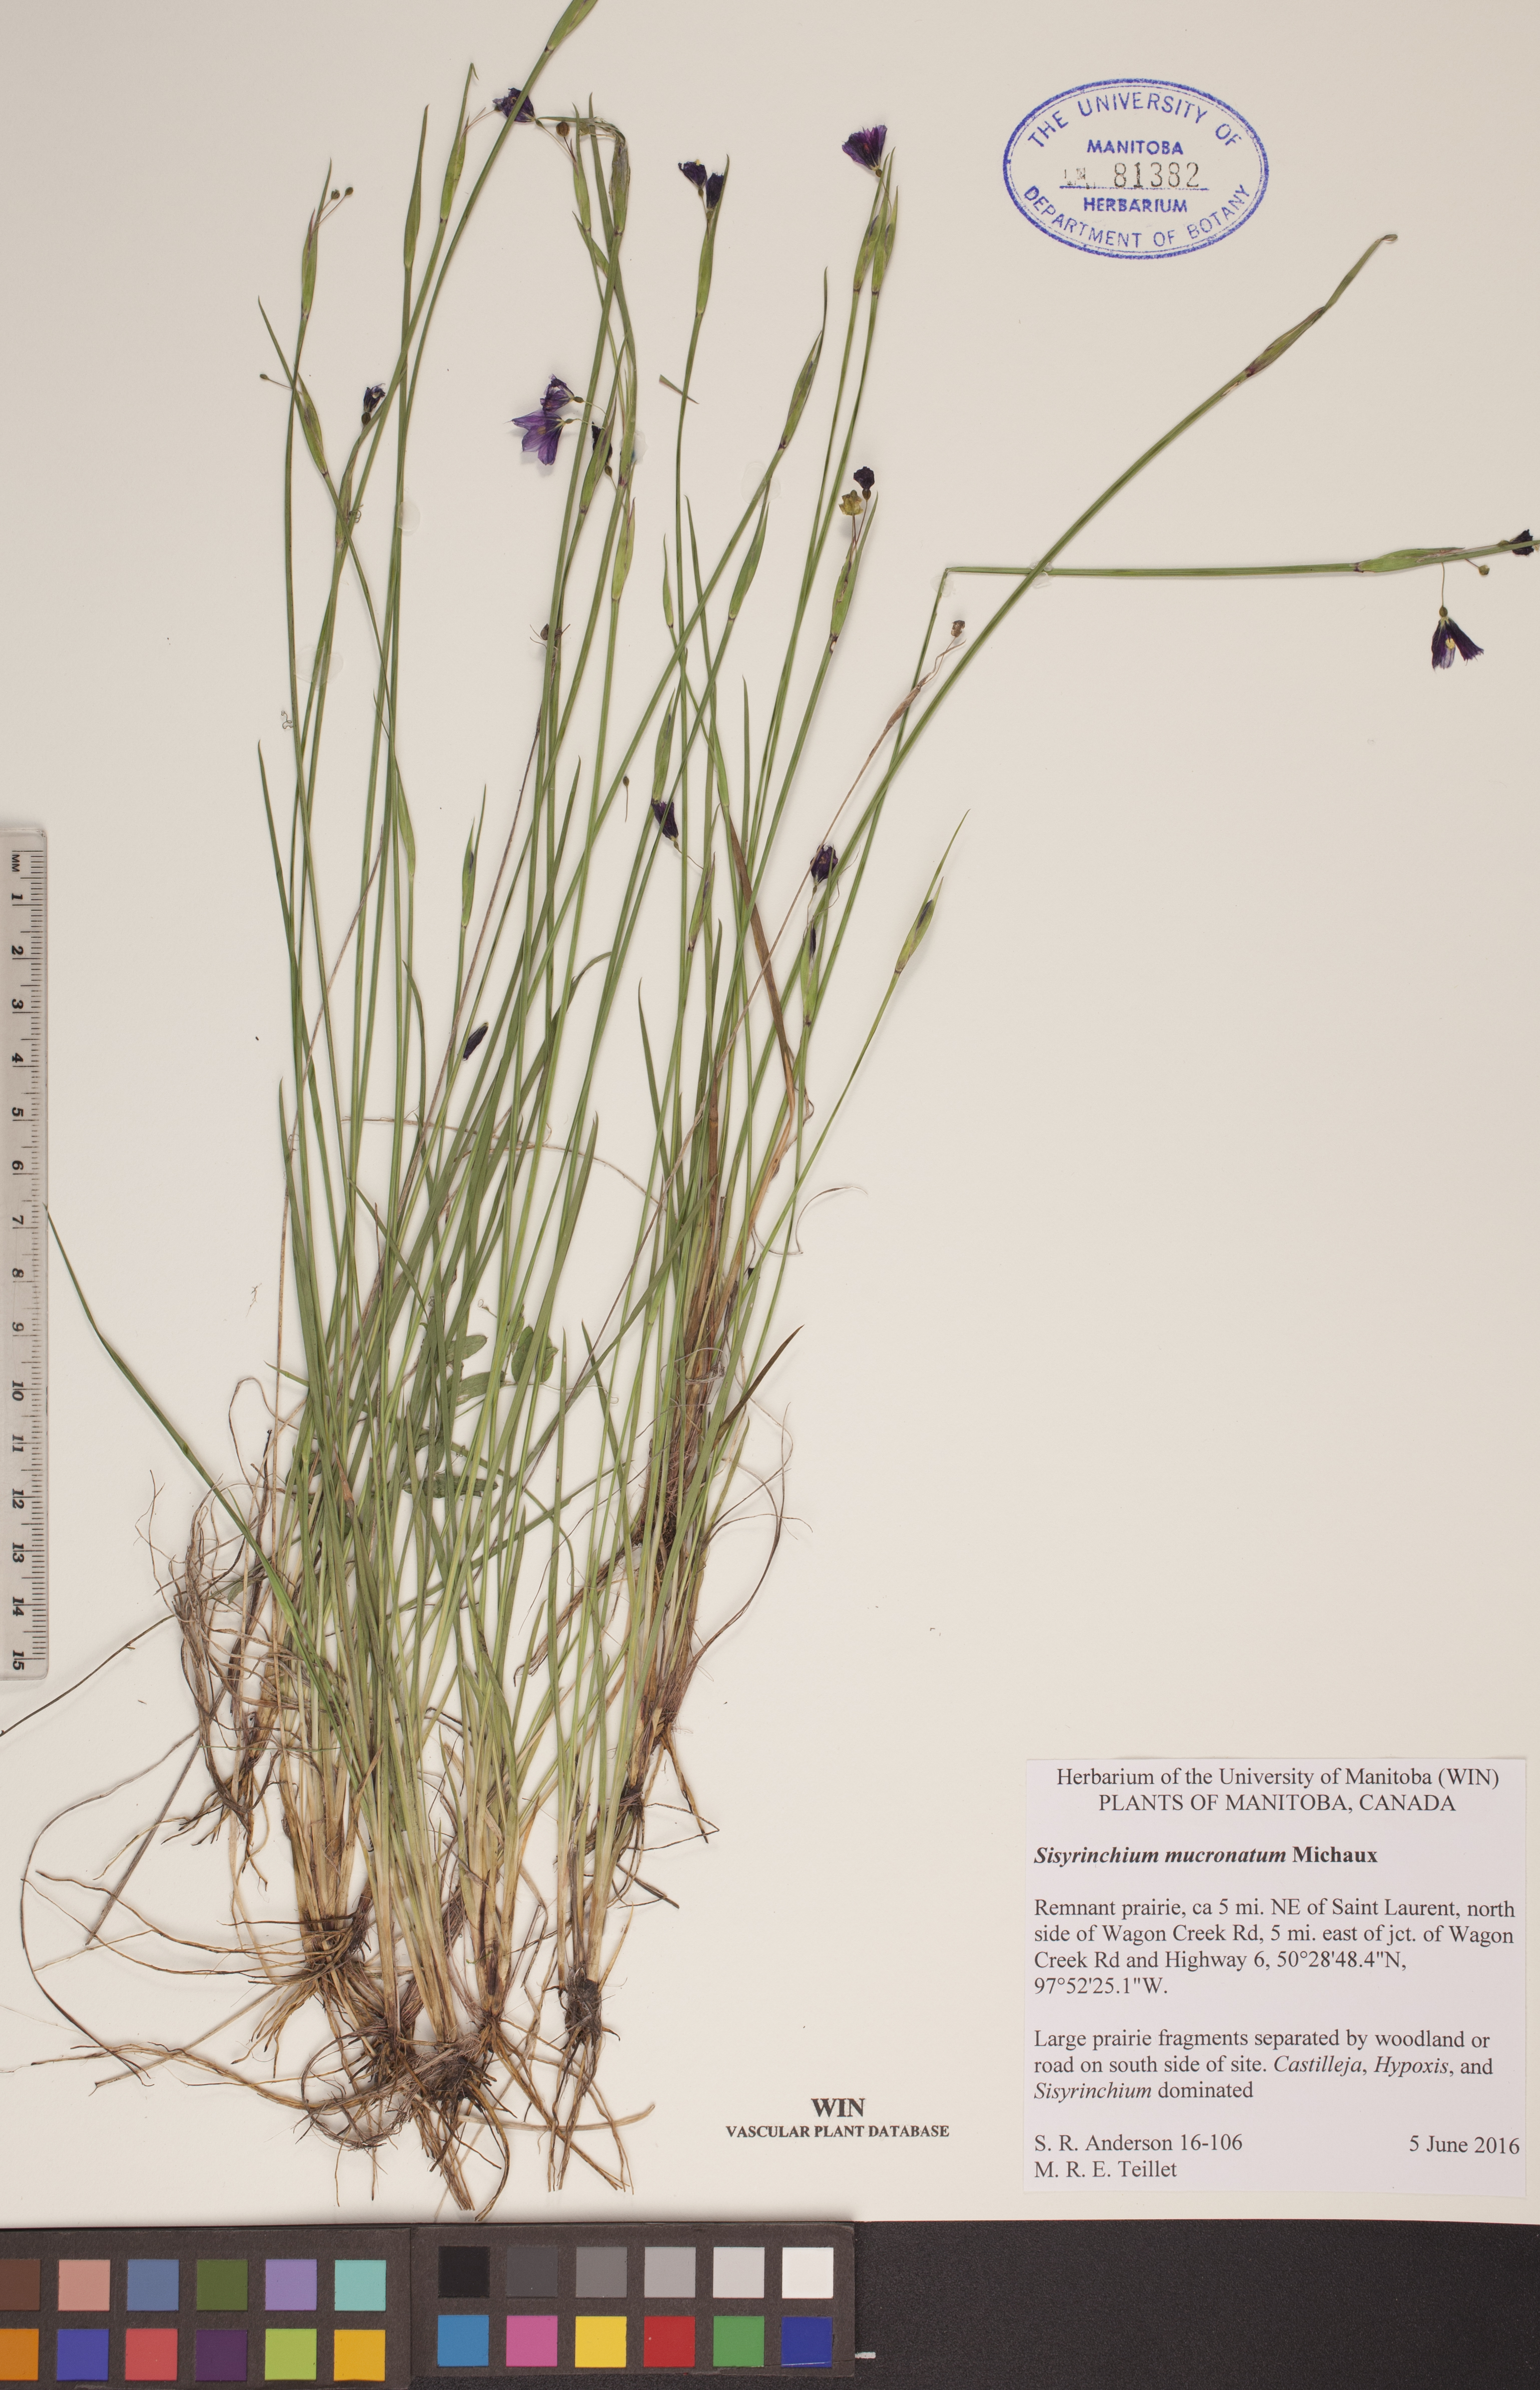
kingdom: Plantae
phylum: Tracheophyta
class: Liliopsida
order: Asparagales
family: Iridaceae
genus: Sisyrinchium
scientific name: Sisyrinchium mucronatum
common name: Eastern blue-eyed-grass
